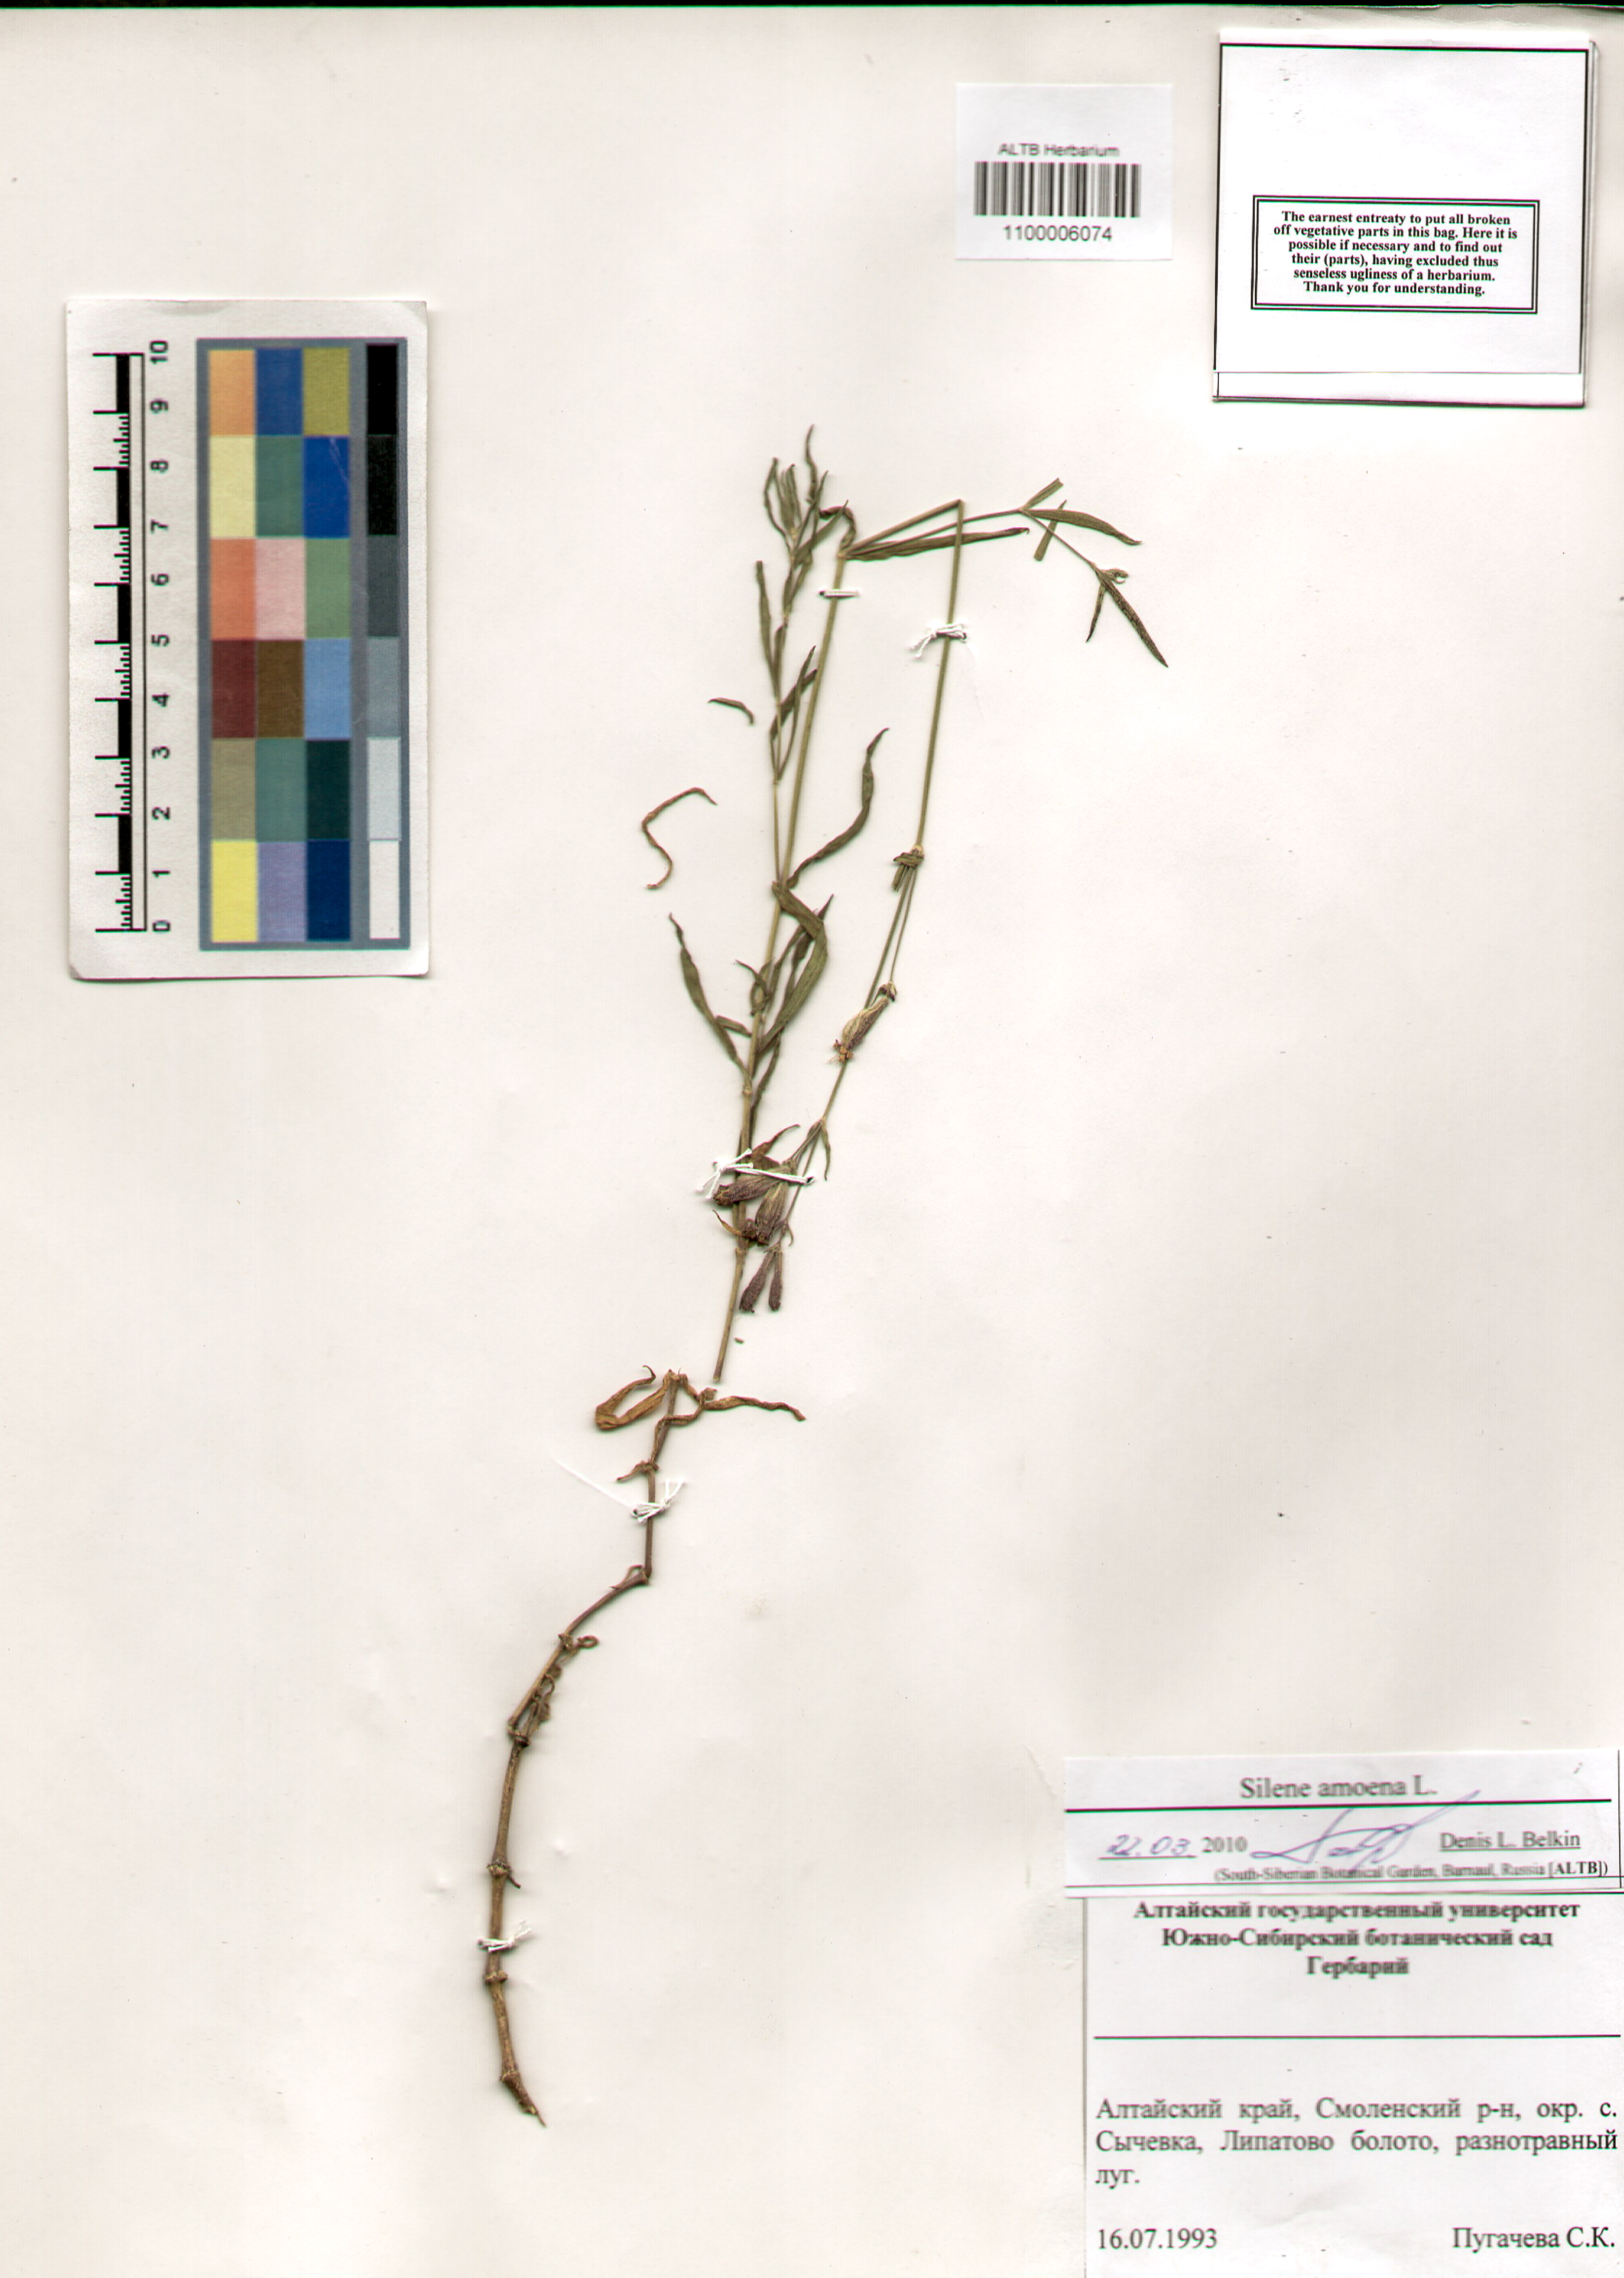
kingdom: Plantae
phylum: Tracheophyta
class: Magnoliopsida
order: Caryophyllales
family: Caryophyllaceae
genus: Silene
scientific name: Silene amoena
